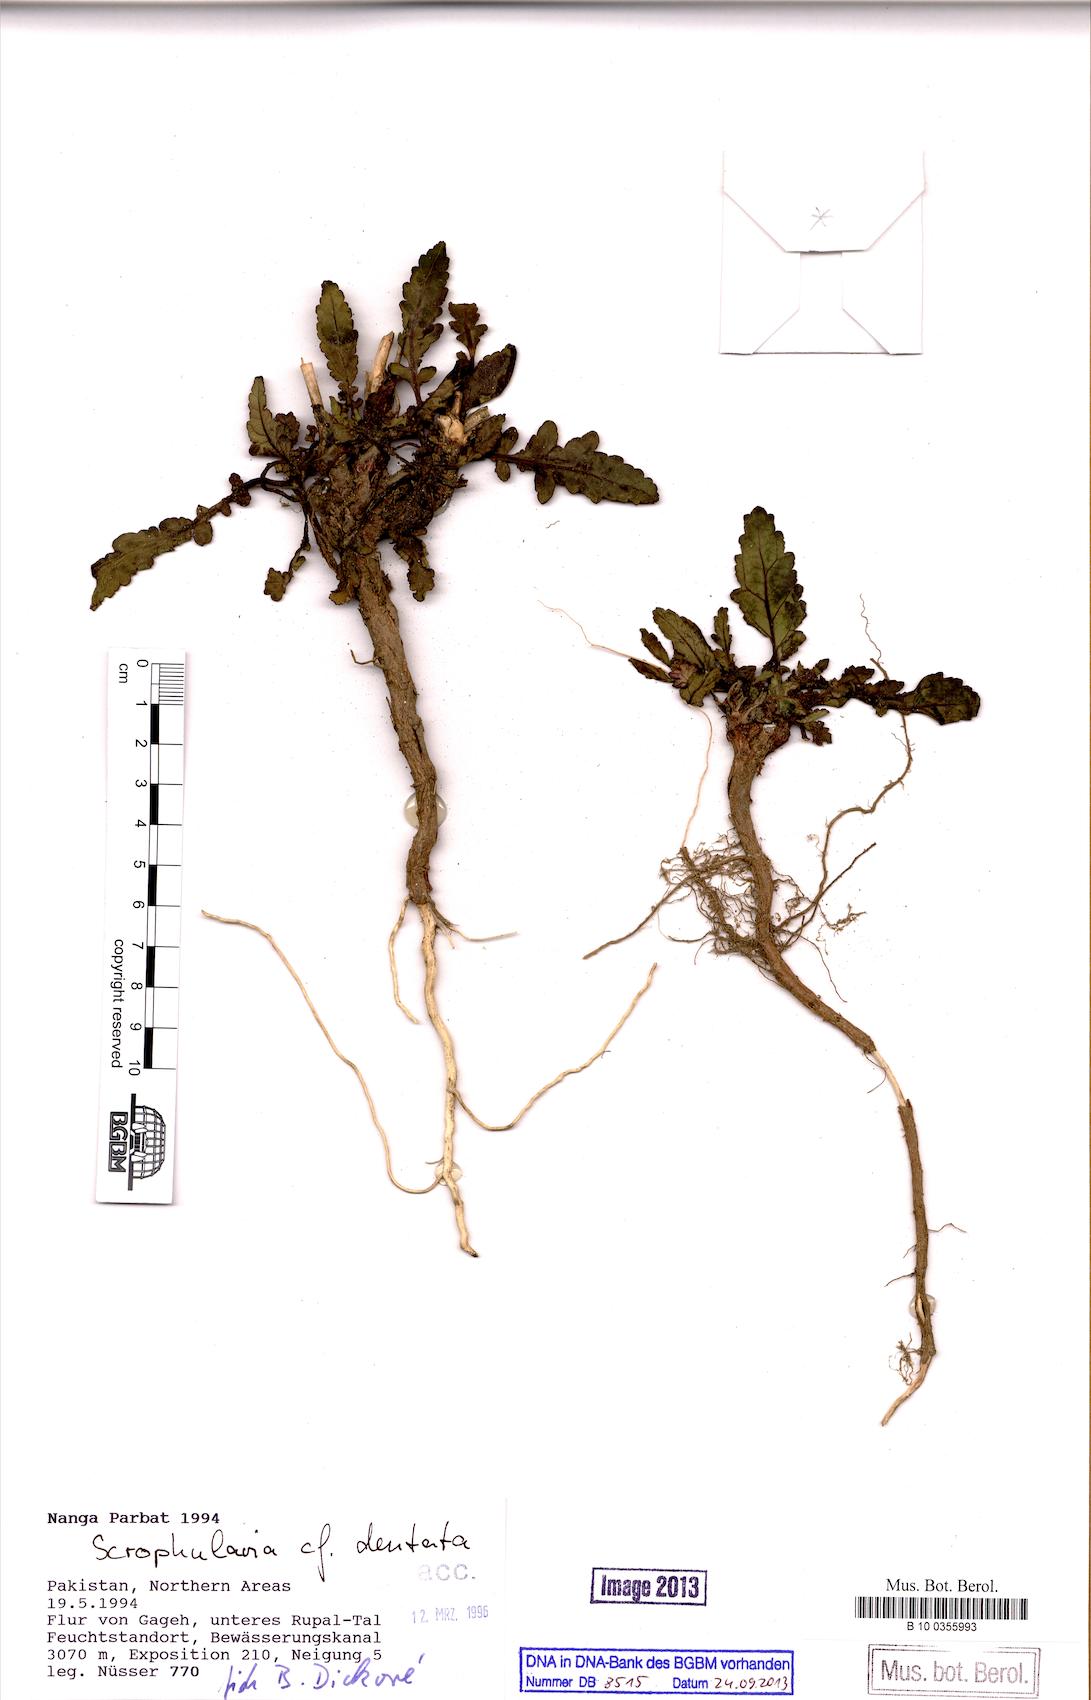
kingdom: Plantae
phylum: Tracheophyta
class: Magnoliopsida
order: Lamiales
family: Scrophulariaceae
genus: Scrophularia
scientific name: Scrophularia dentata
